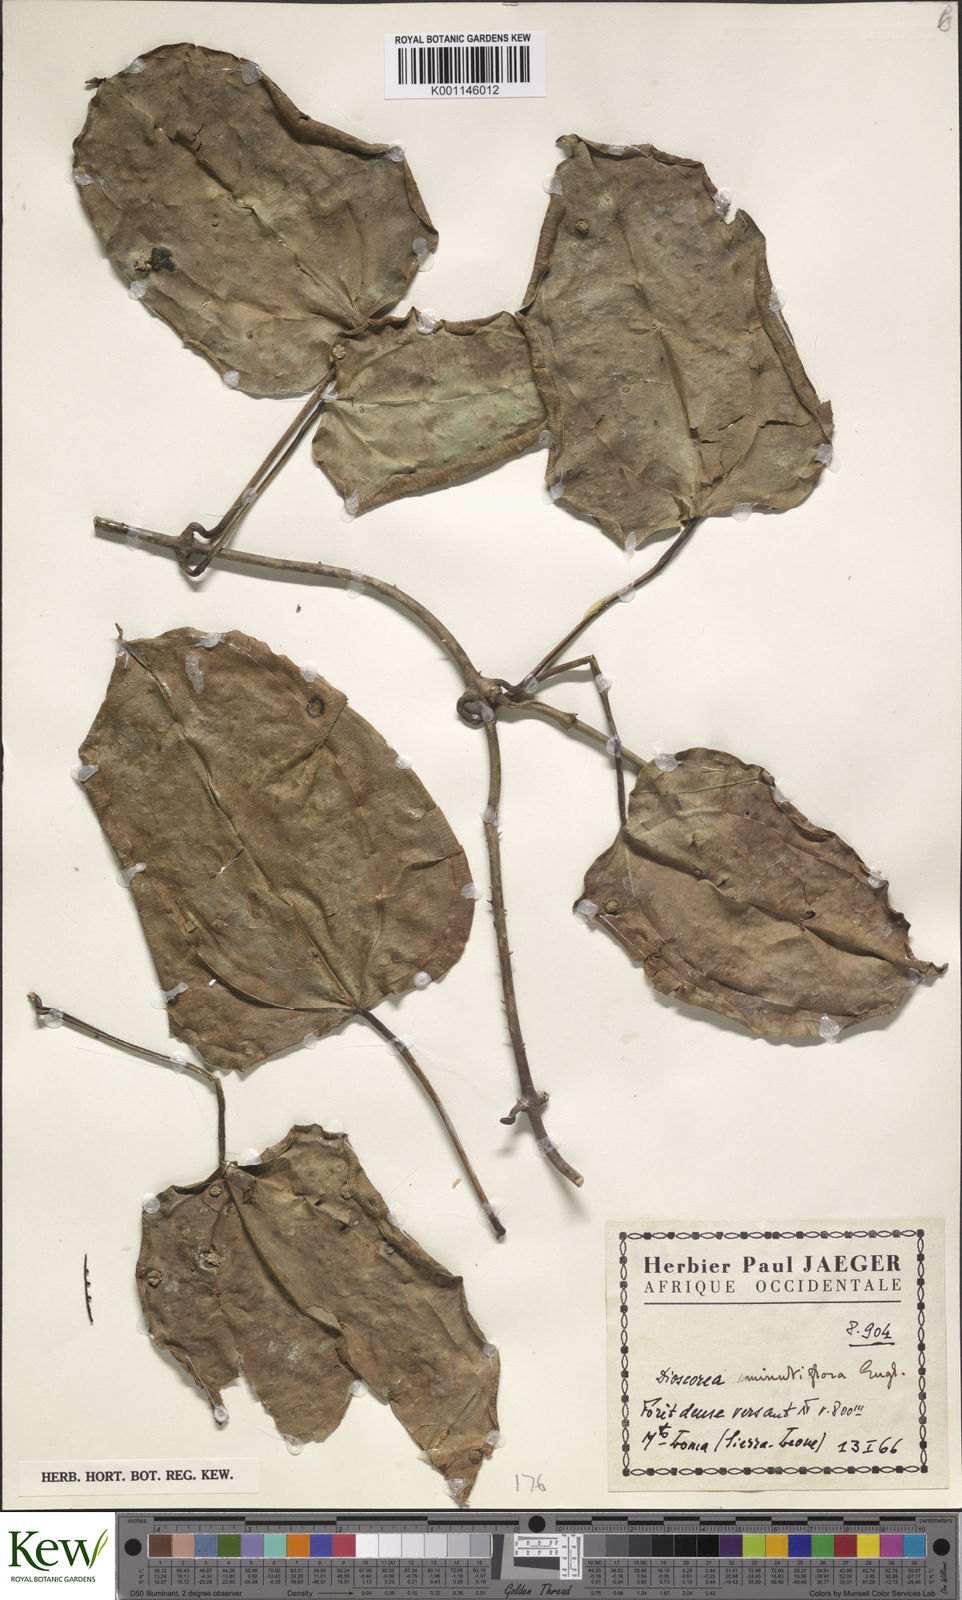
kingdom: Plantae
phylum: Tracheophyta
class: Liliopsida
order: Dioscoreales
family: Dioscoreaceae
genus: Dioscorea
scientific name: Dioscorea minutiflora
